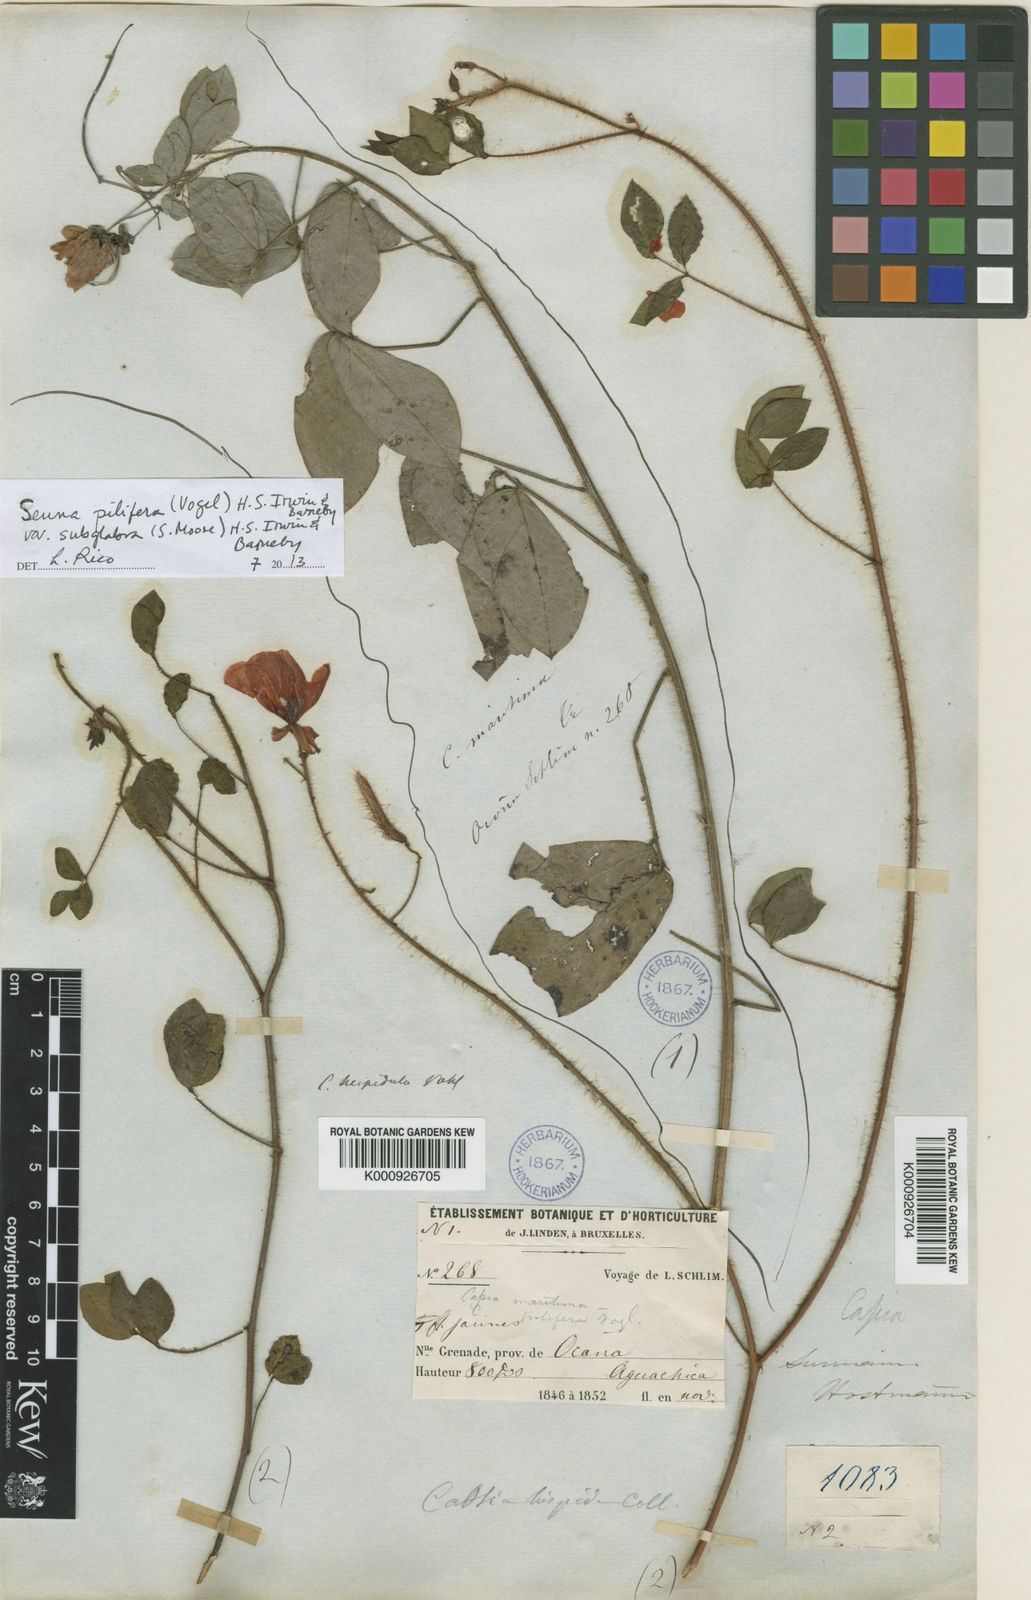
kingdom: Plantae
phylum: Tracheophyta
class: Magnoliopsida
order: Fabales
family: Fabaceae
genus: Senna
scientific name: Senna pilifera
